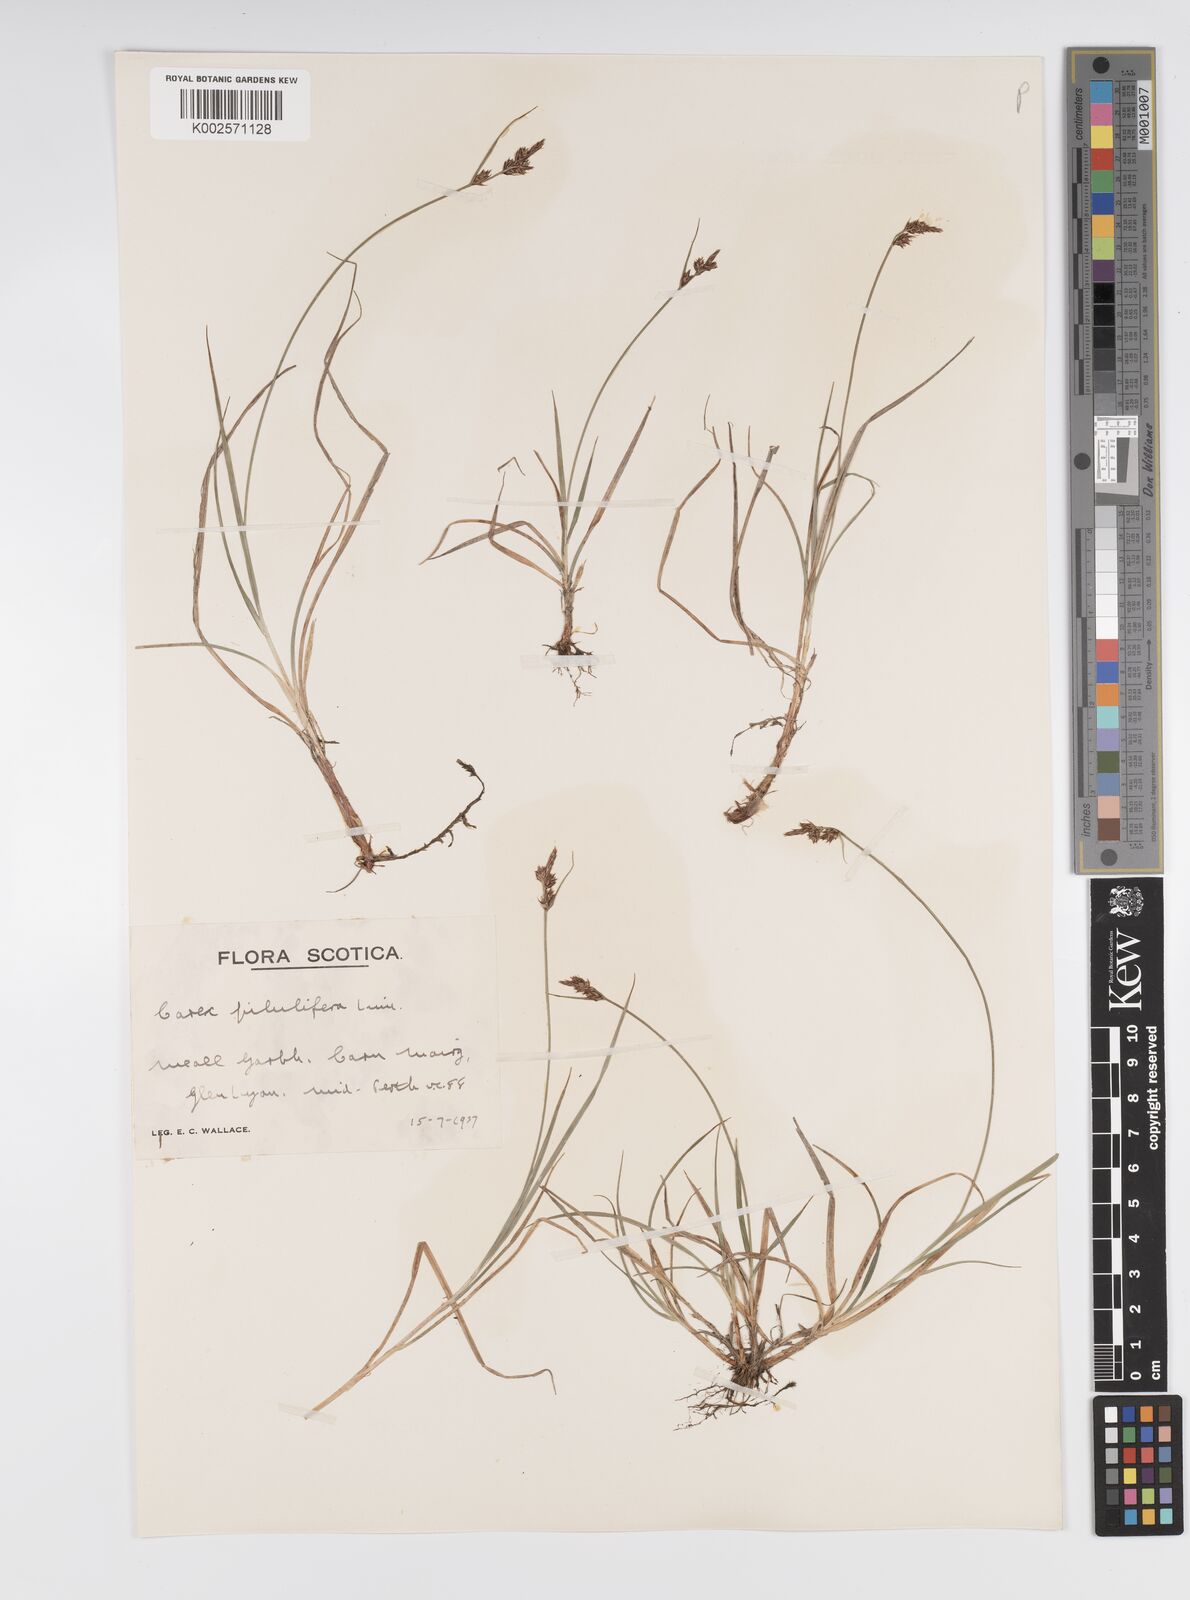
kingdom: Plantae
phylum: Tracheophyta
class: Liliopsida
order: Poales
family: Cyperaceae
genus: Carex
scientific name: Carex pilulifera
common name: Pill sedge
